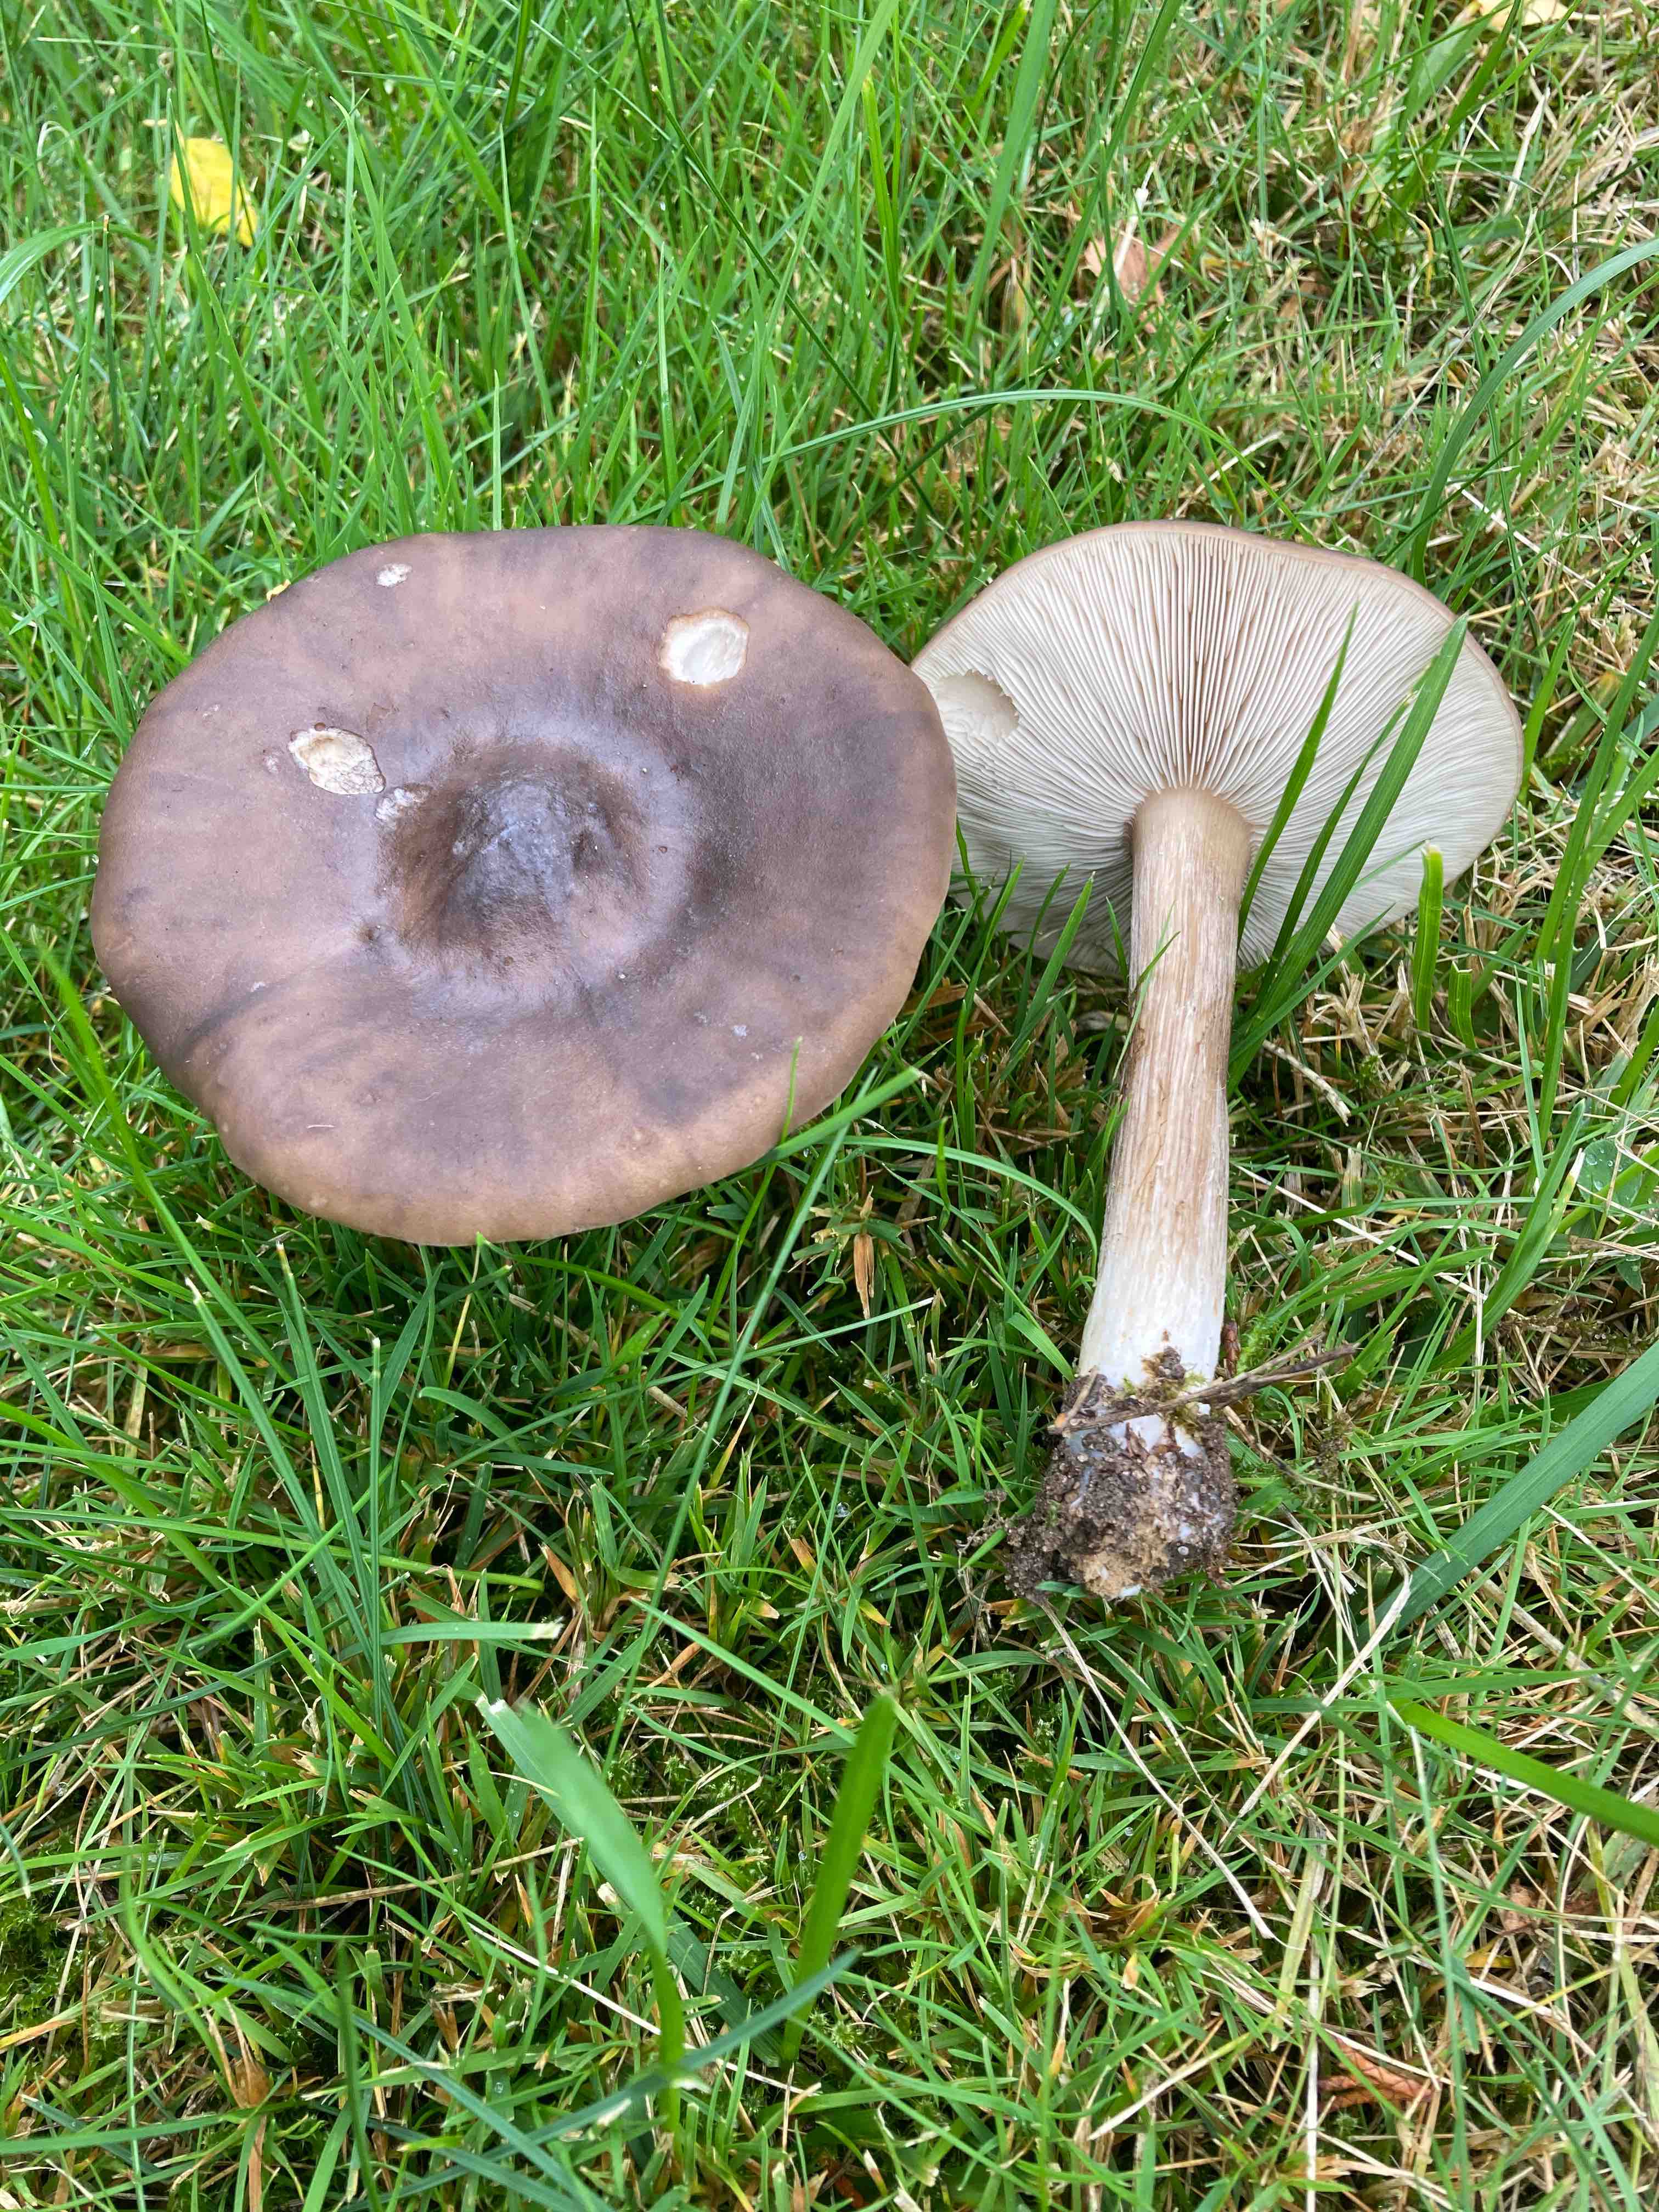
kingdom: Fungi
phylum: Basidiomycota
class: Agaricomycetes
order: Agaricales
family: Tricholomataceae
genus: Melanoleuca
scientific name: Melanoleuca
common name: munkehat
